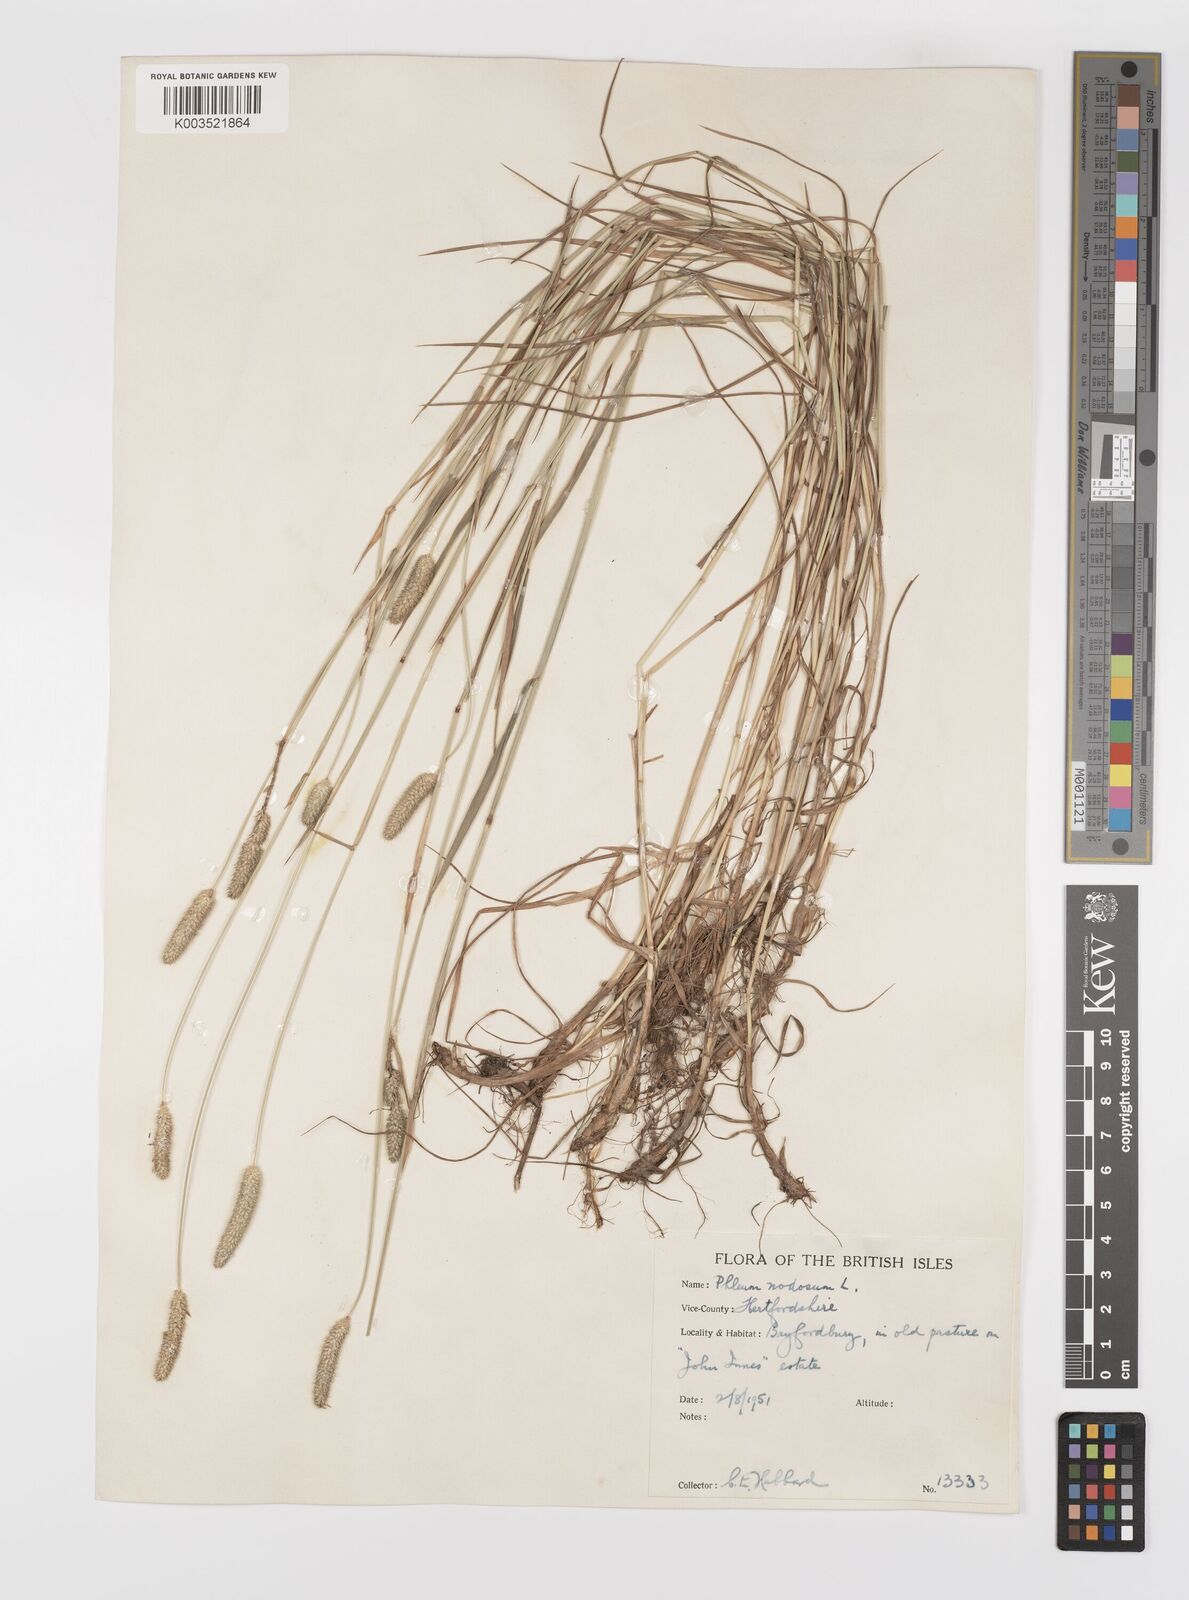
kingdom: Plantae
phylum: Tracheophyta
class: Liliopsida
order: Poales
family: Poaceae
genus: Phleum
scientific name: Phleum bertolonii
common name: Smaller cat's-tail
